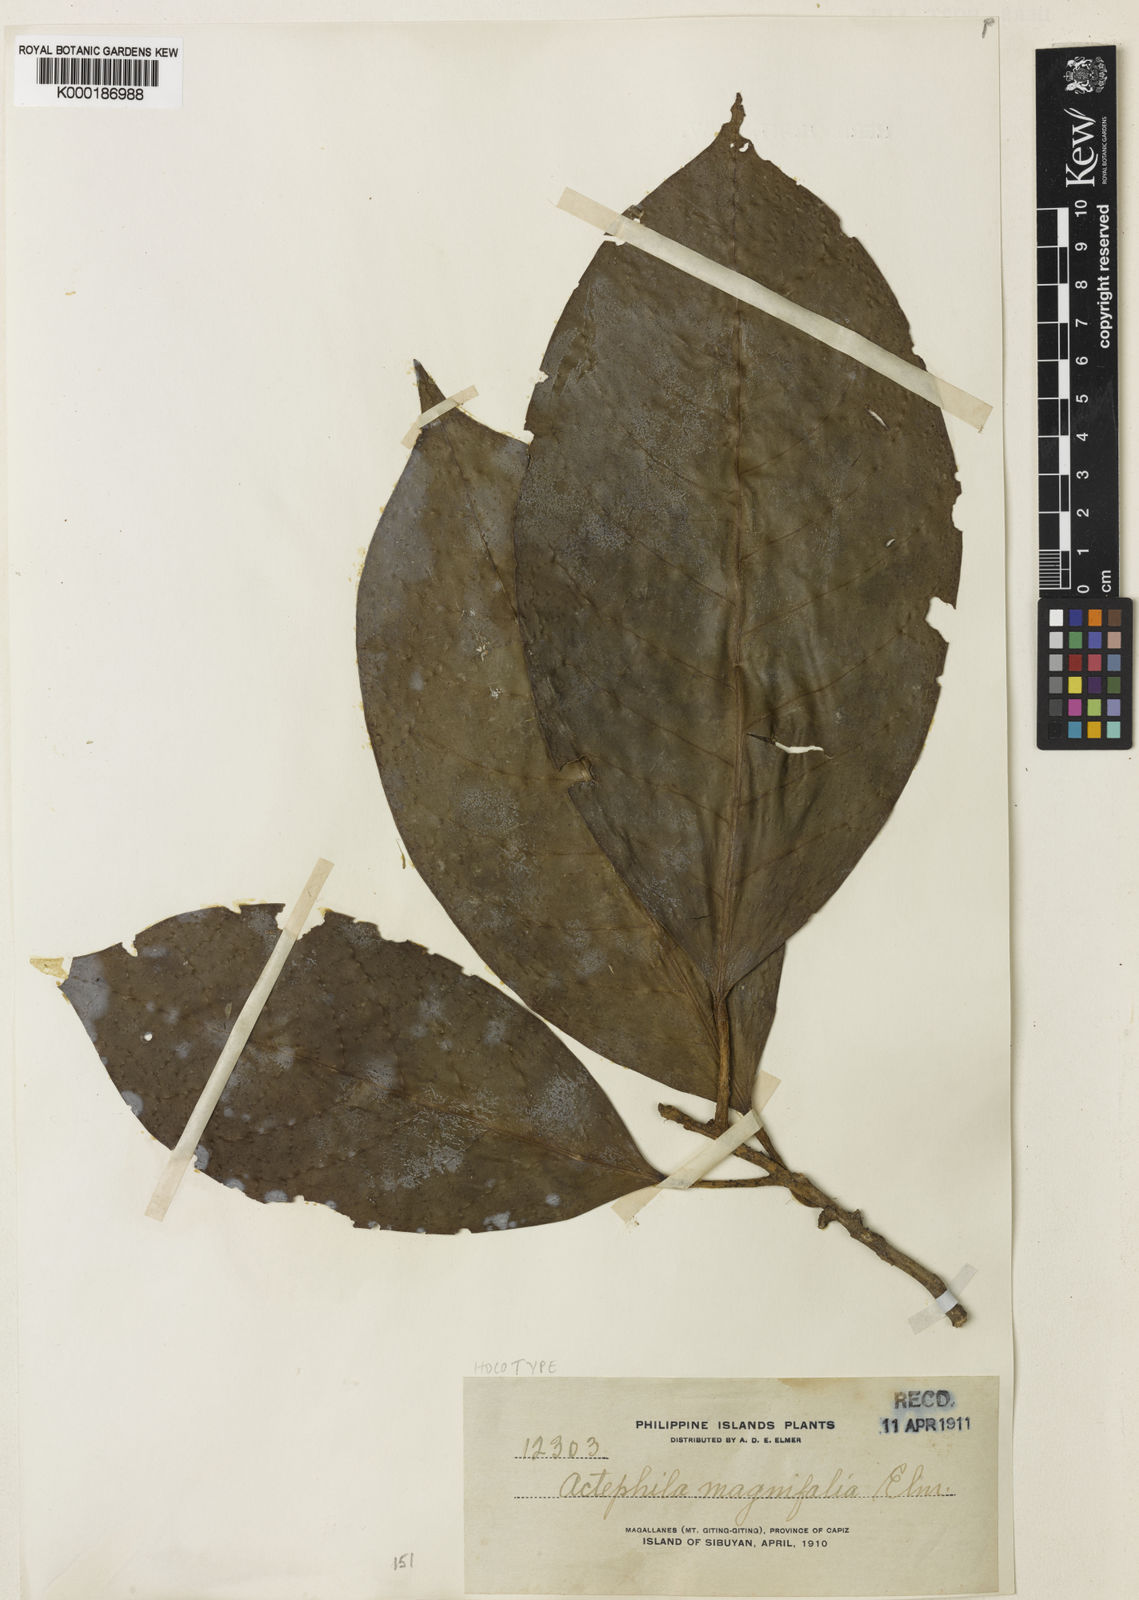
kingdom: Plantae
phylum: Tracheophyta
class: Magnoliopsida
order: Malpighiales
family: Phyllanthaceae
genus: Actephila
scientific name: Actephila
